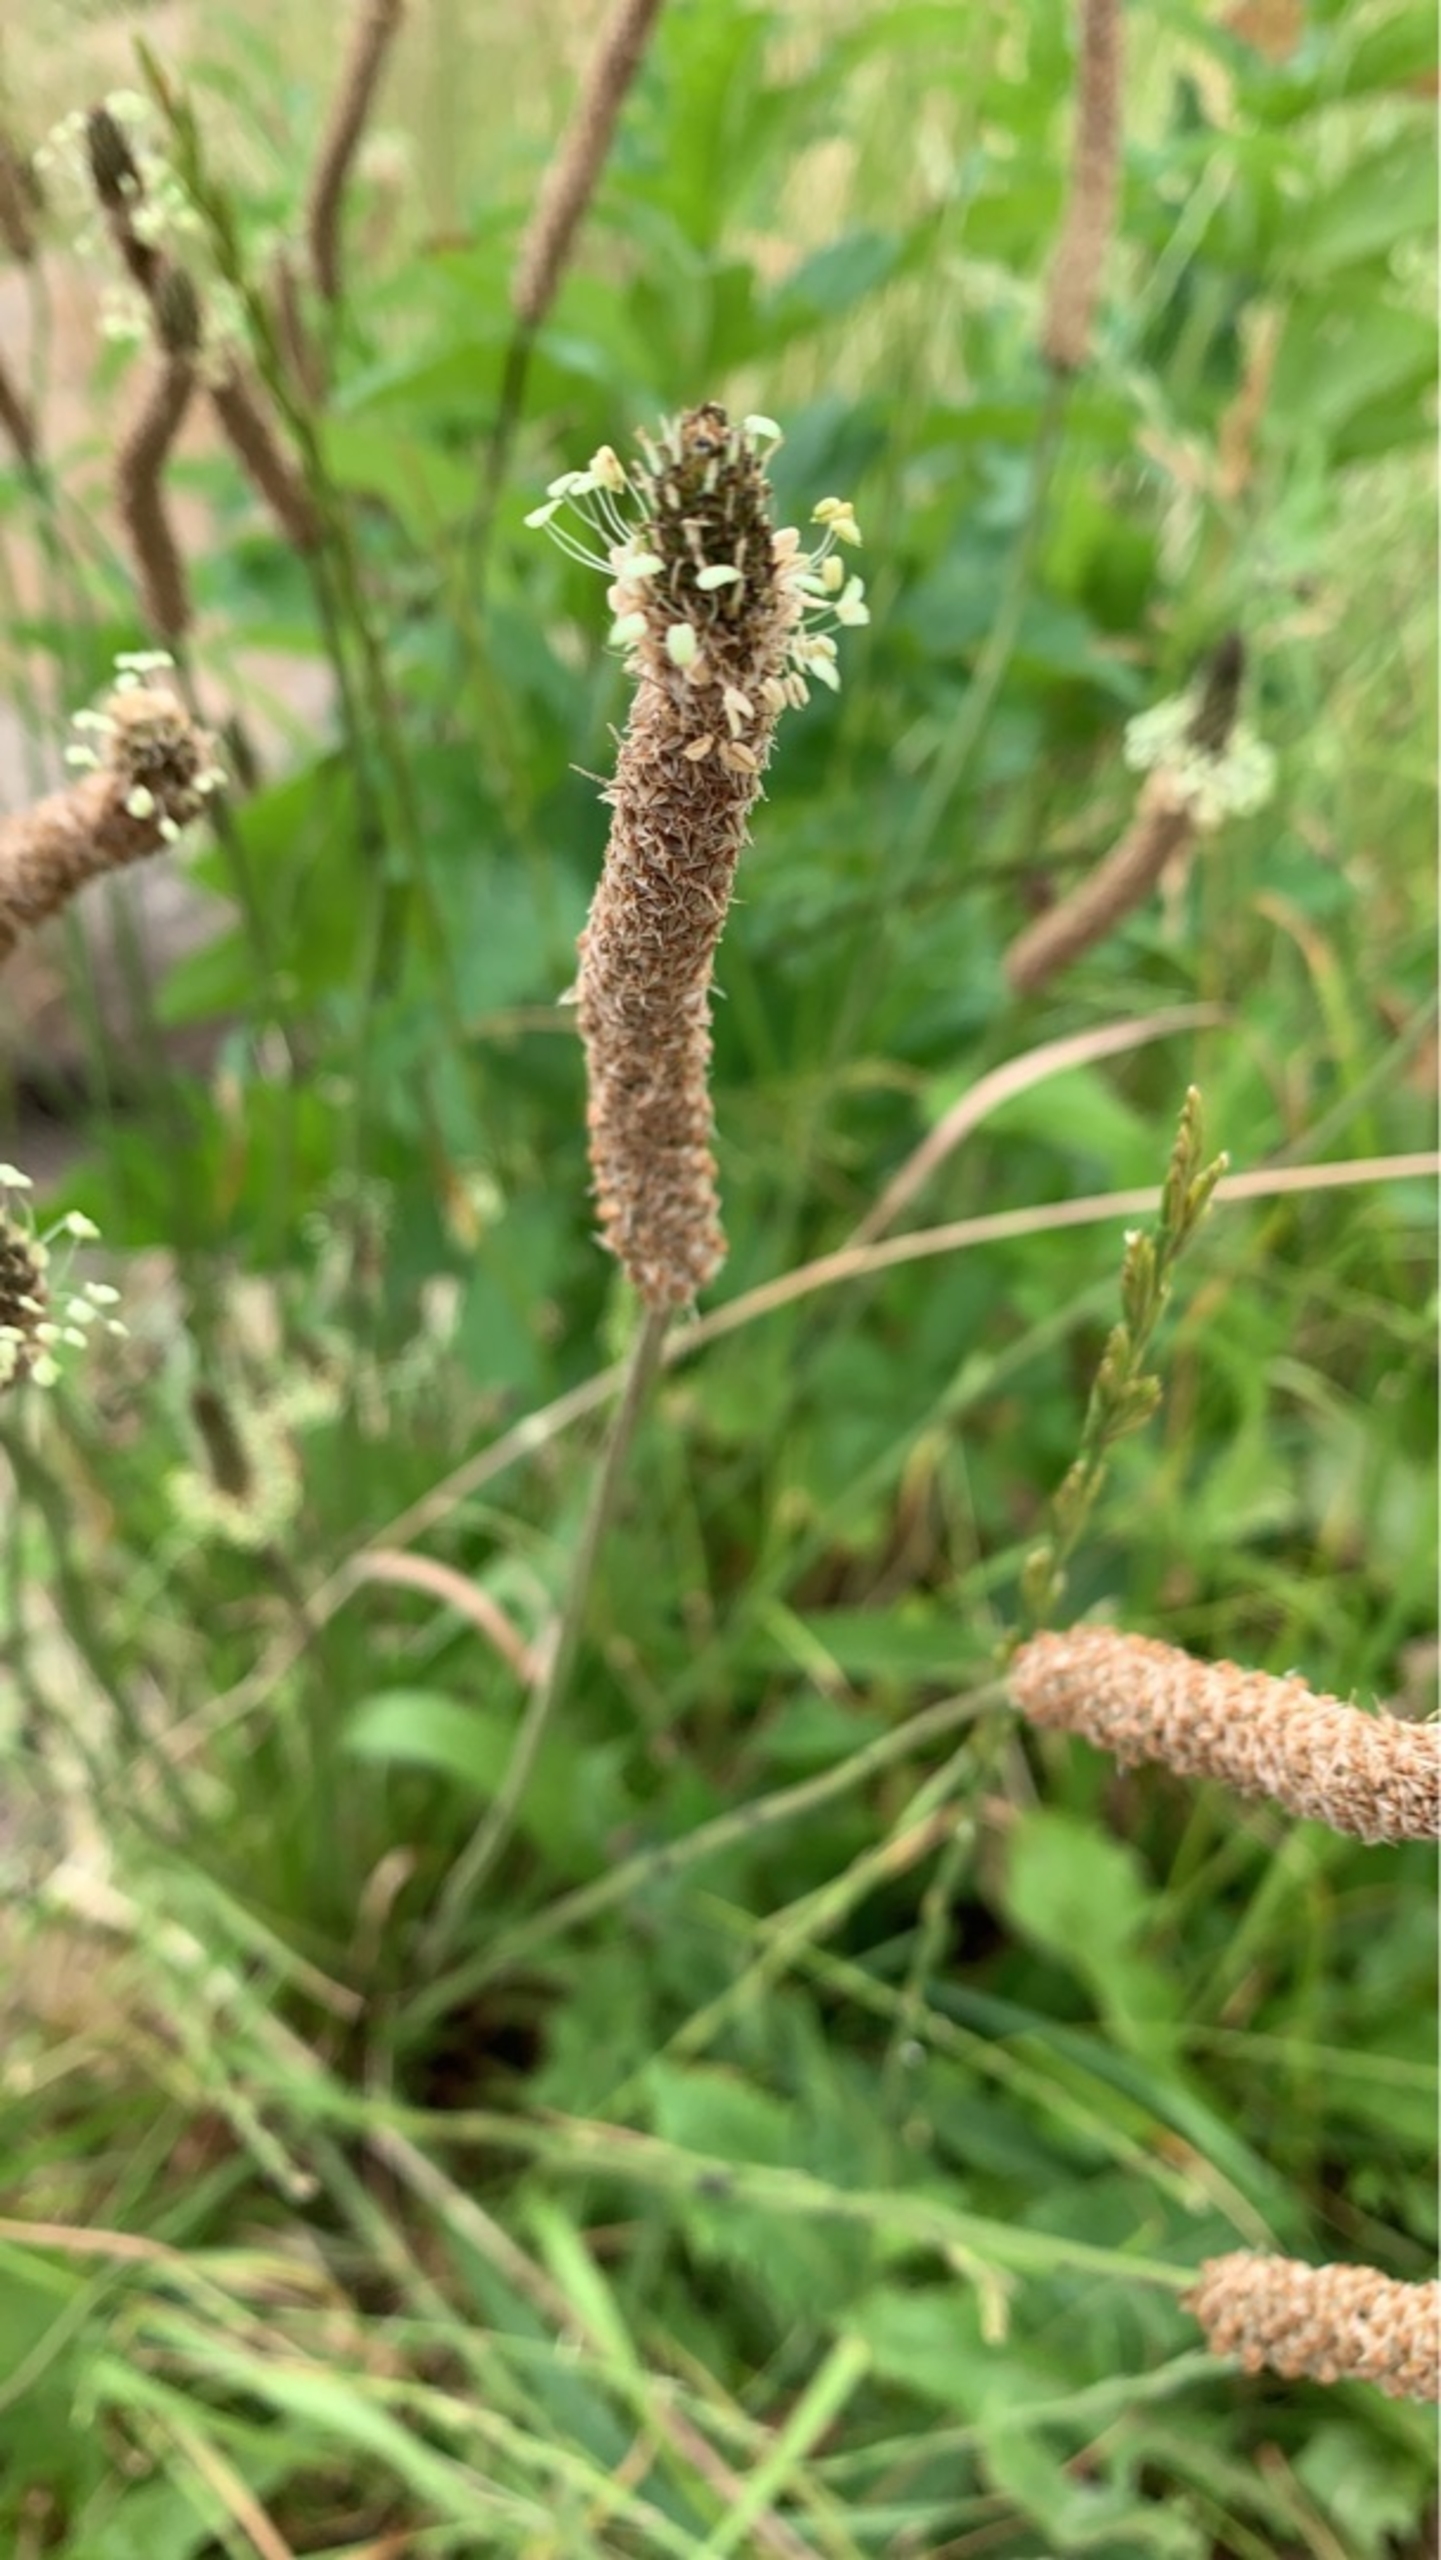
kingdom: Plantae
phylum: Tracheophyta
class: Magnoliopsida
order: Lamiales
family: Plantaginaceae
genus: Plantago
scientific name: Plantago lanceolata
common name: Lancet-vejbred
